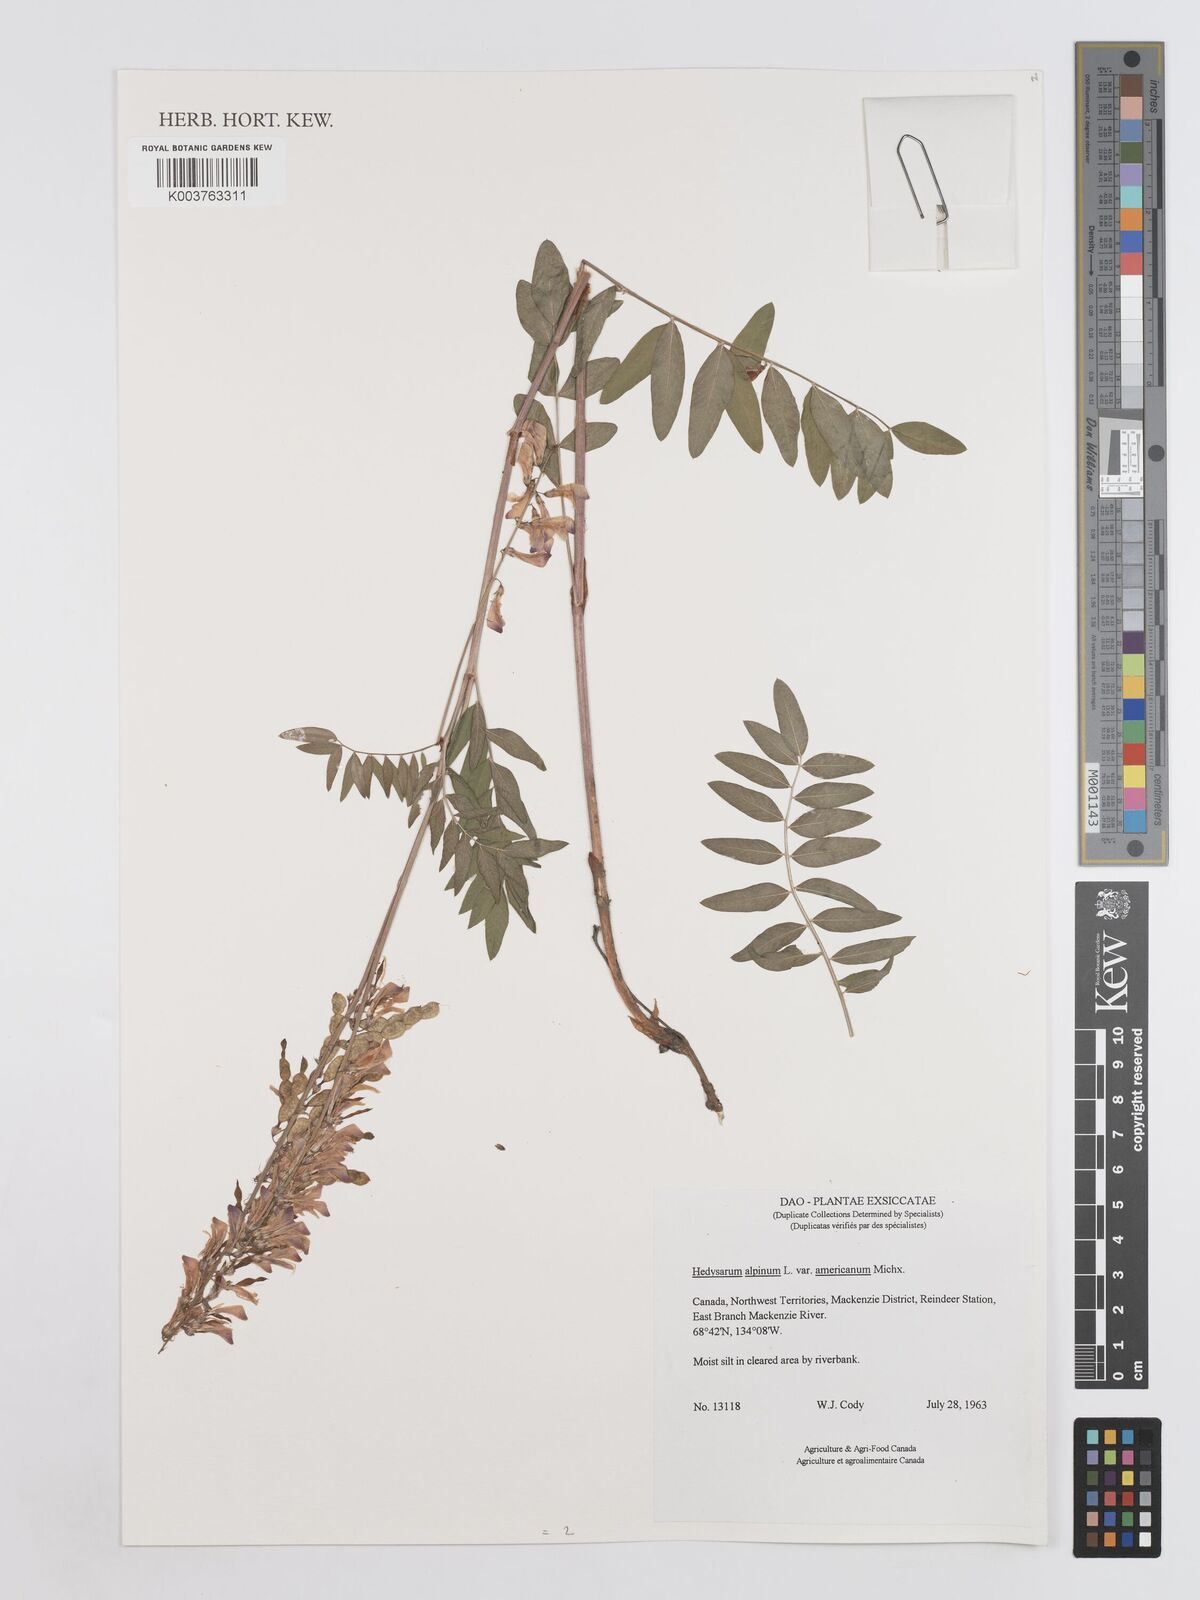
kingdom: Plantae
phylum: Tracheophyta
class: Magnoliopsida
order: Fabales
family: Fabaceae
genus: Hedysarum
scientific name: Hedysarum alpinum
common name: Alpine sweet-vetch
